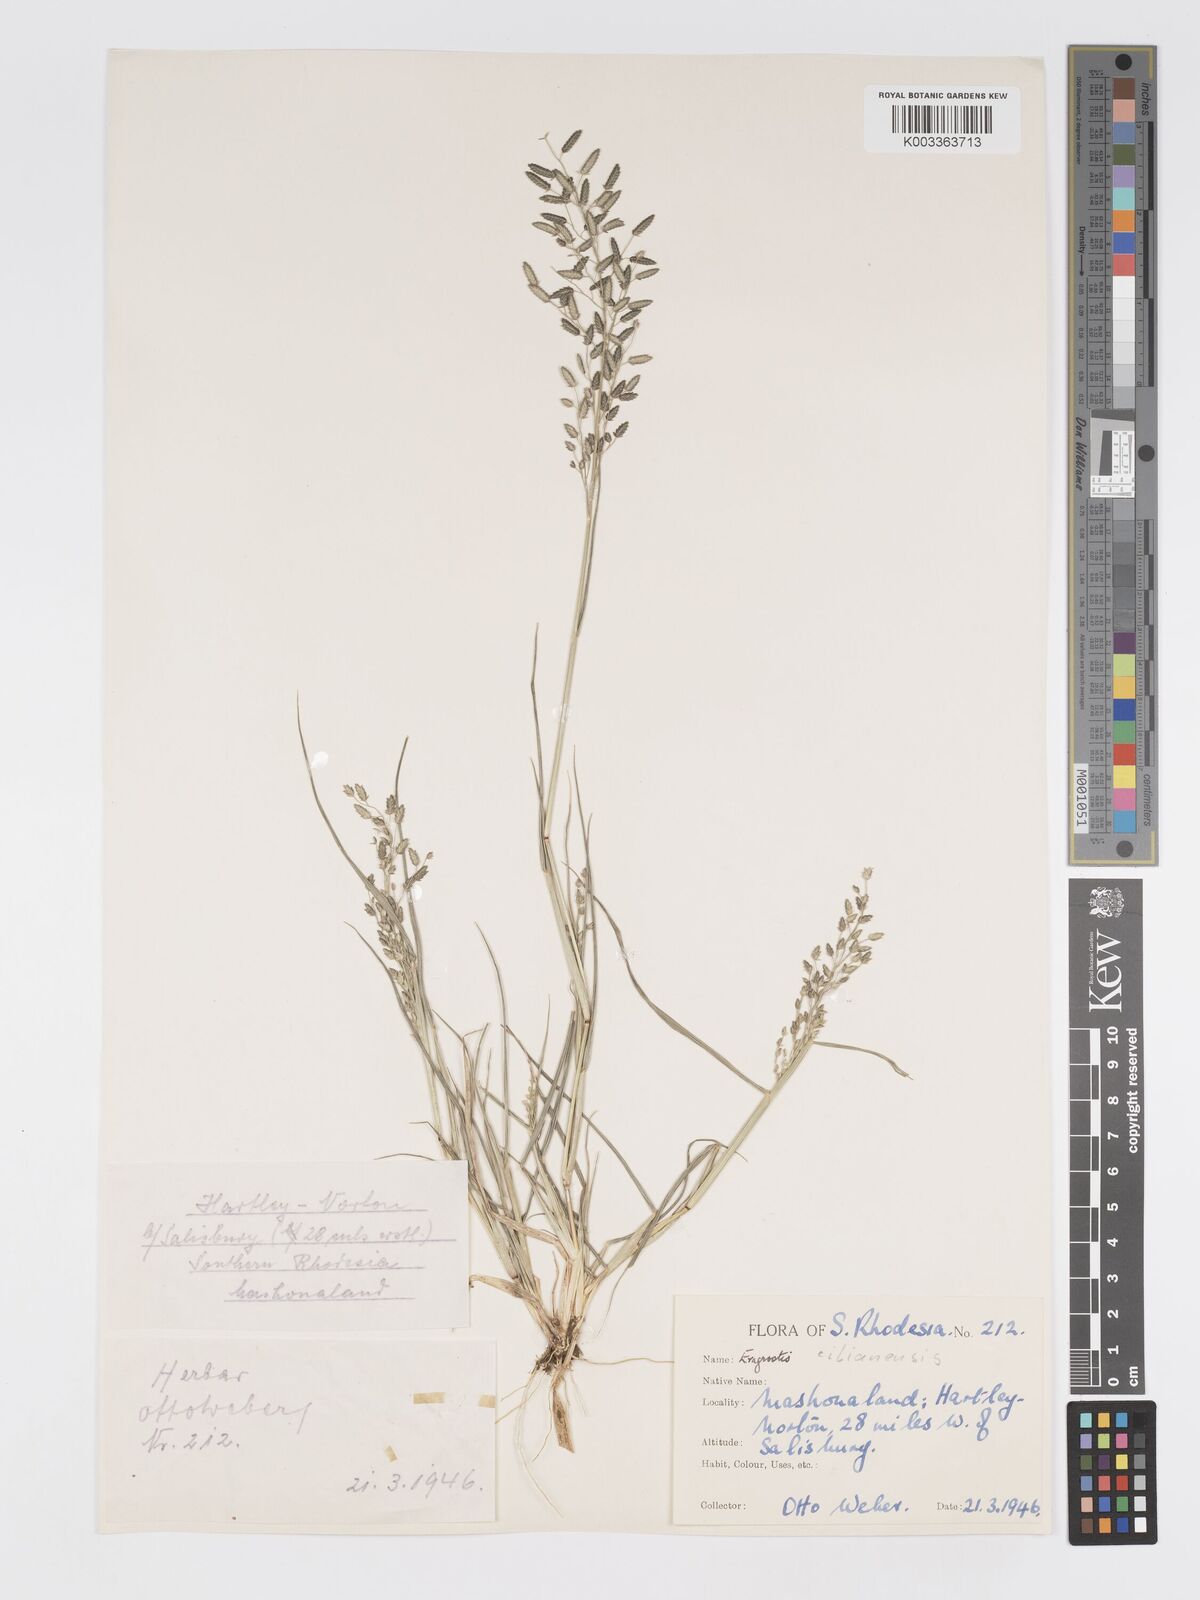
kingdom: Plantae
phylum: Tracheophyta
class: Liliopsida
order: Poales
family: Poaceae
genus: Eragrostis
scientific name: Eragrostis cilianensis
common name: Stinkgrass
